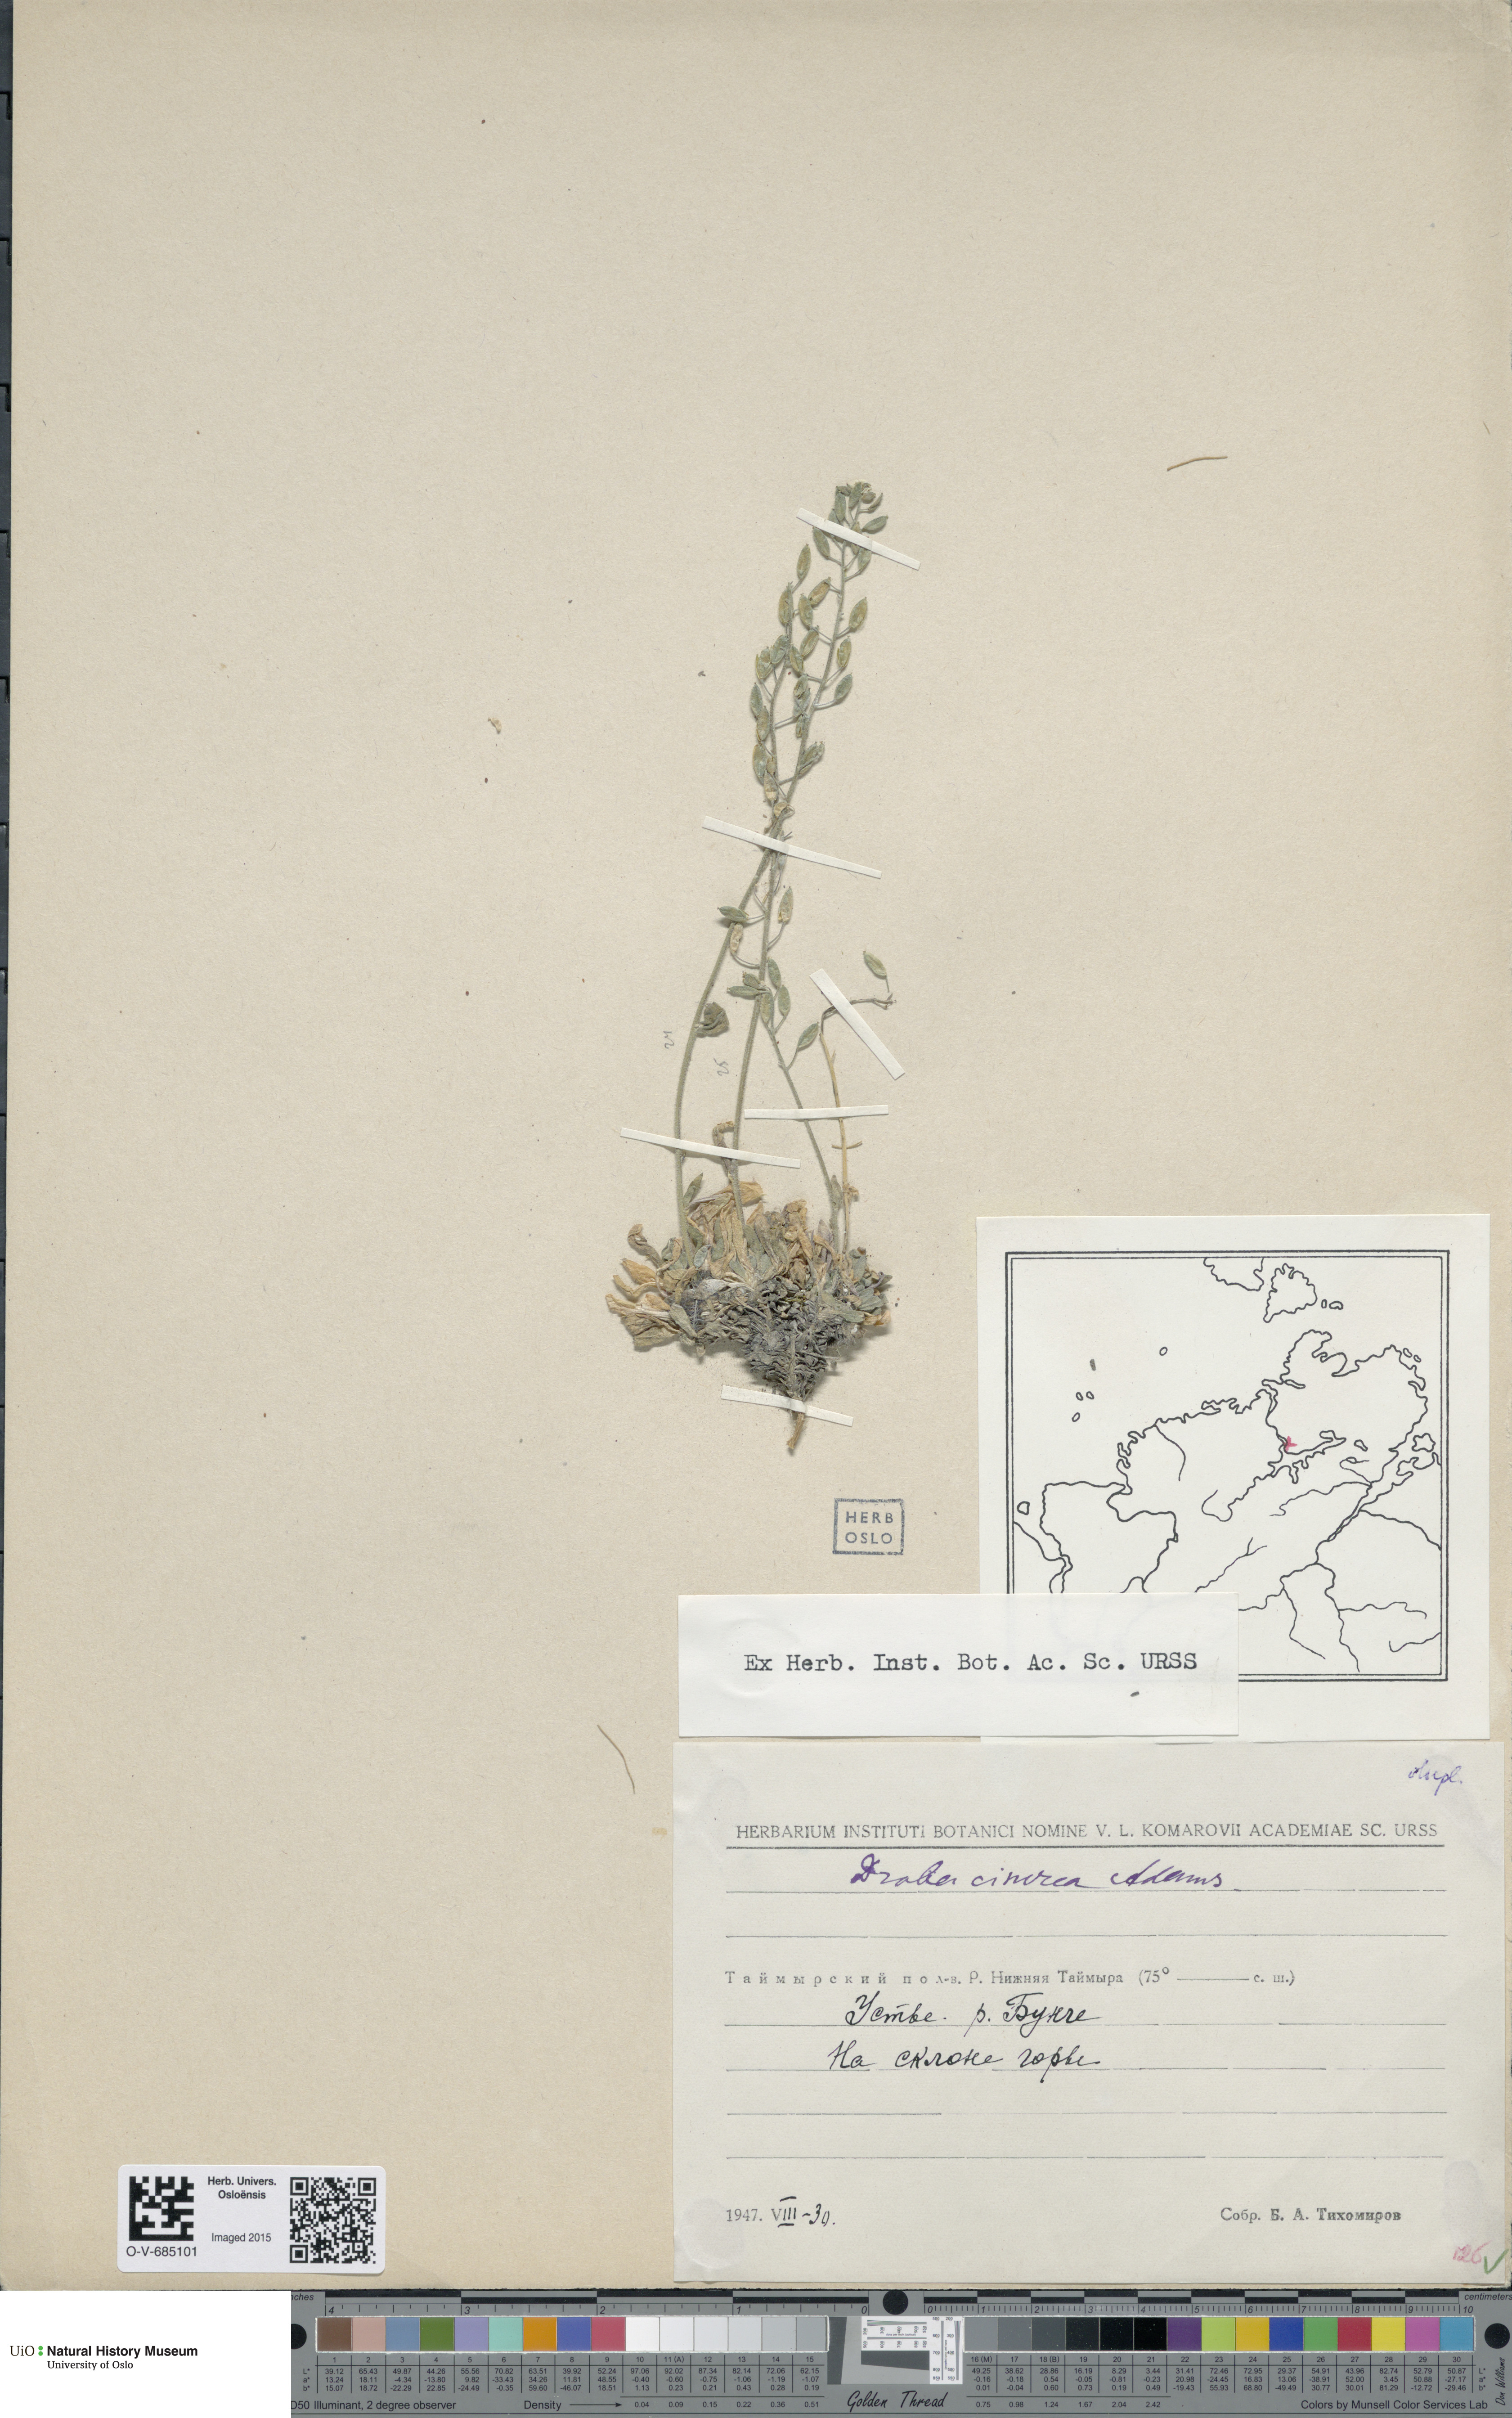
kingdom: Plantae
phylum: Tracheophyta
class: Magnoliopsida
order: Brassicales
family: Brassicaceae
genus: Draba
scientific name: Draba cinerea
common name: Ash-coloured whitlow-grass
